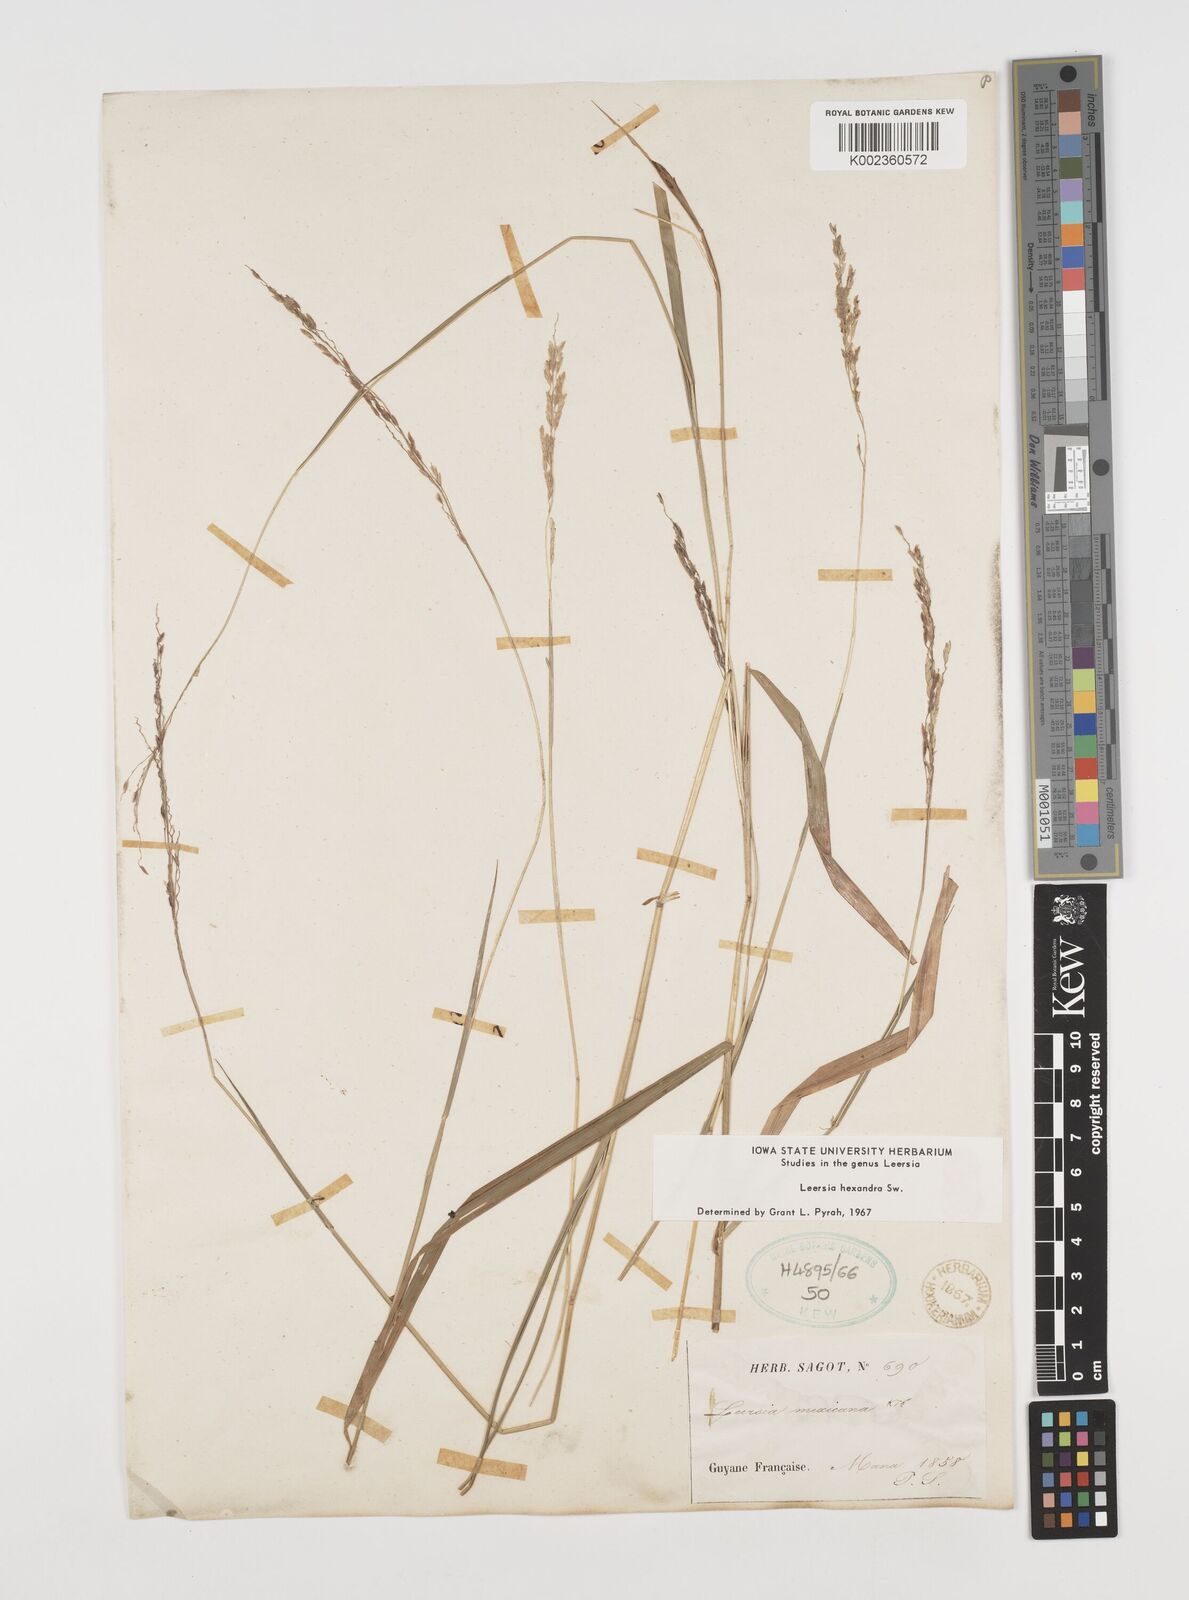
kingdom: Plantae
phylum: Tracheophyta
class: Liliopsida
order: Poales
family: Poaceae
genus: Leersia
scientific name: Leersia hexandra
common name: Southern cut grass
